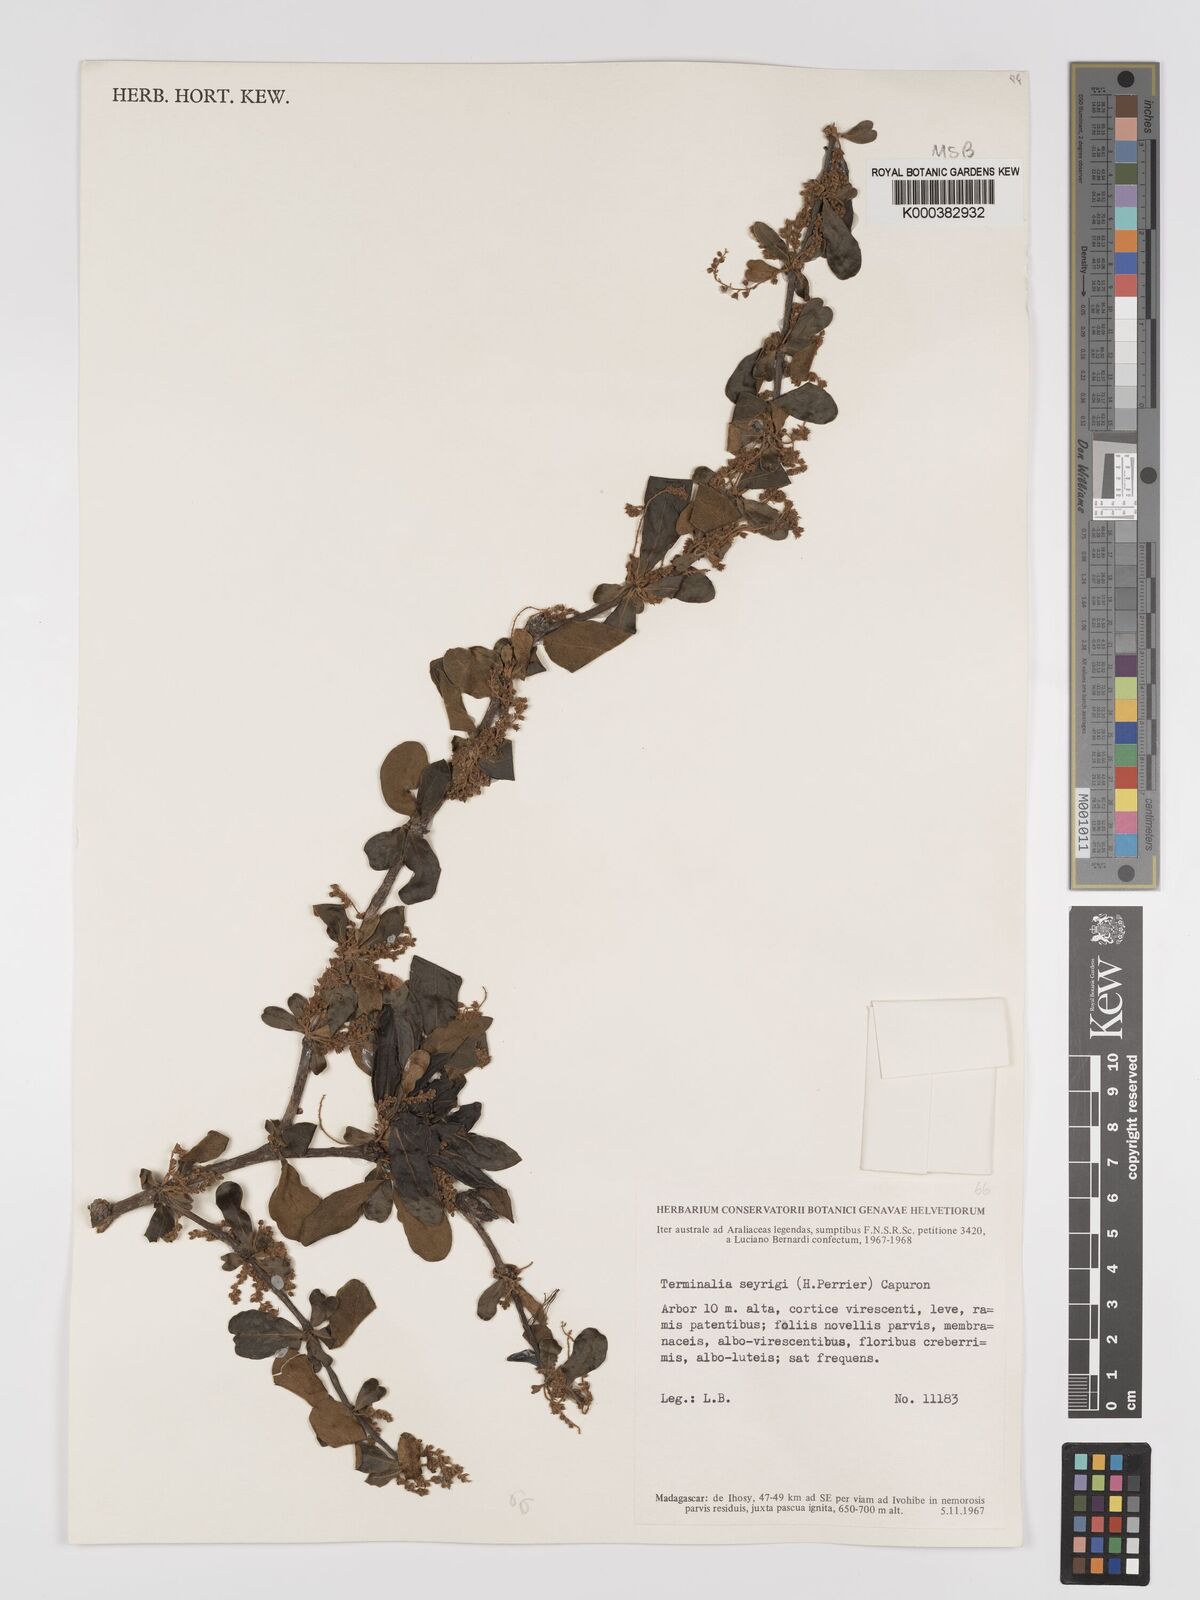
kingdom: Plantae
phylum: Tracheophyta
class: Magnoliopsida
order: Myrtales
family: Combretaceae
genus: Terminalia
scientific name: Terminalia seyrigii
